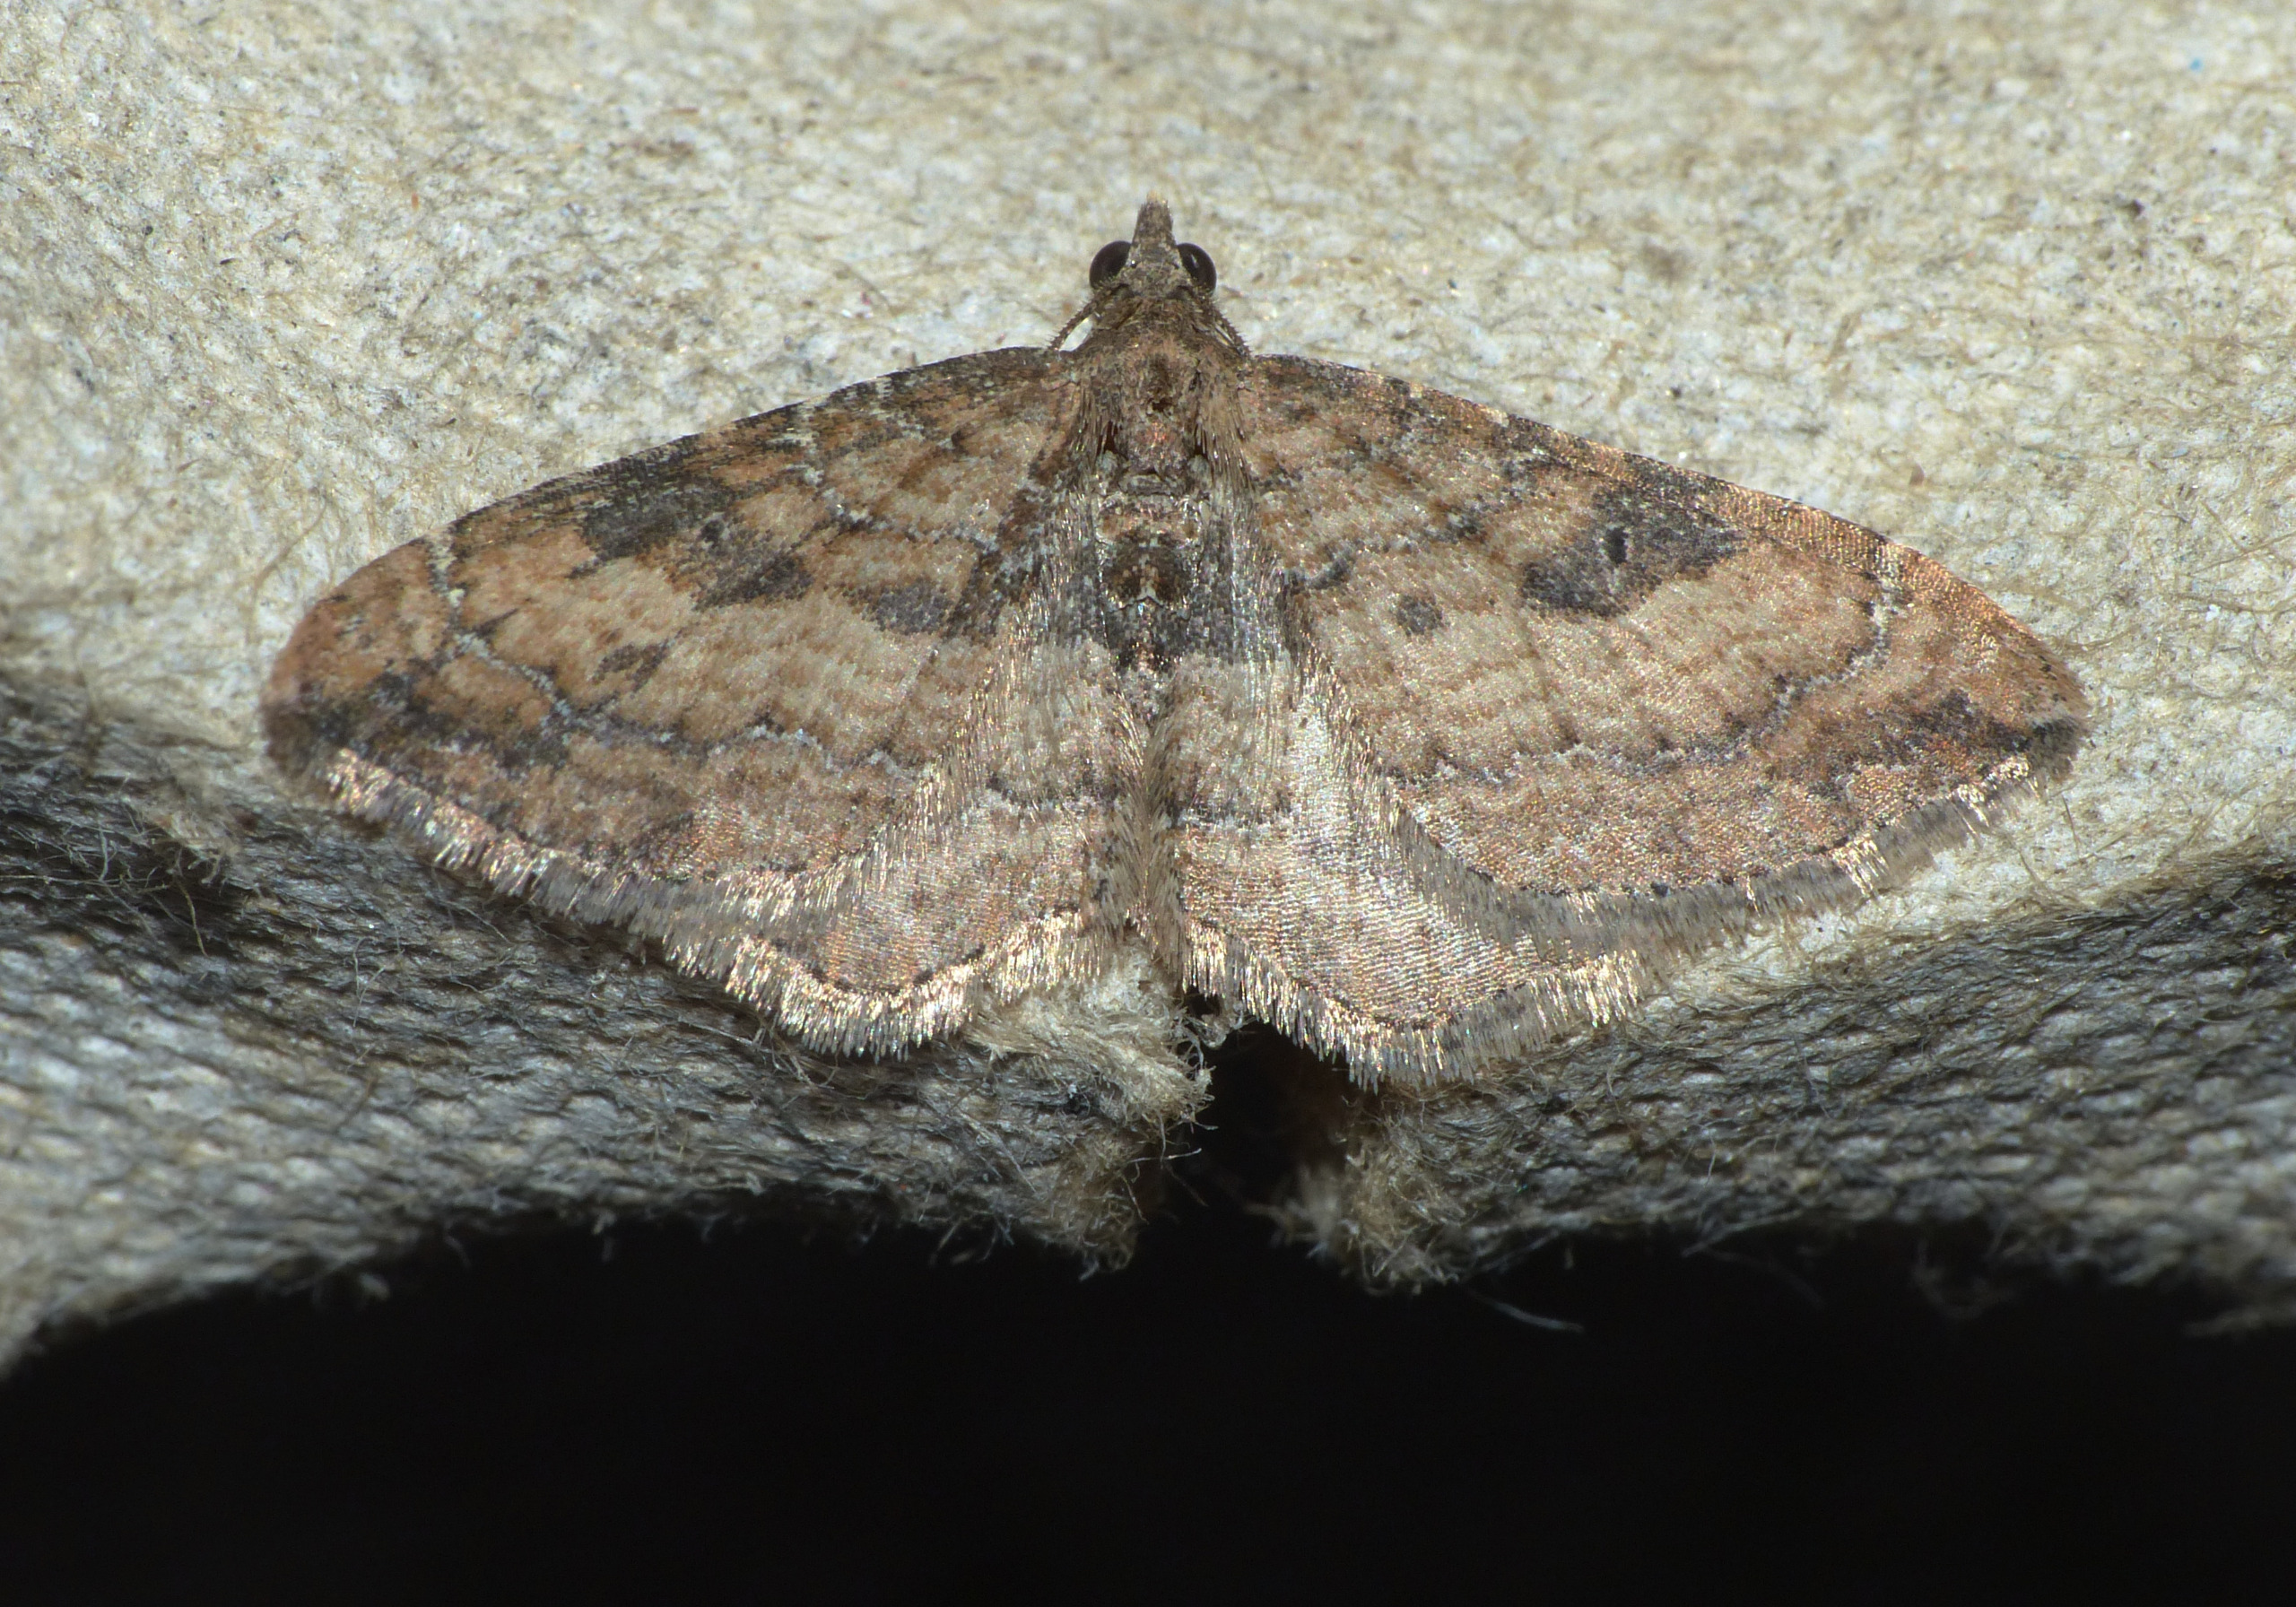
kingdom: Animalia
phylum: Arthropoda
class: Insecta
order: Lepidoptera
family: Geometridae
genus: Orthonama
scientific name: Orthonama obstipata
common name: Vandremåler
